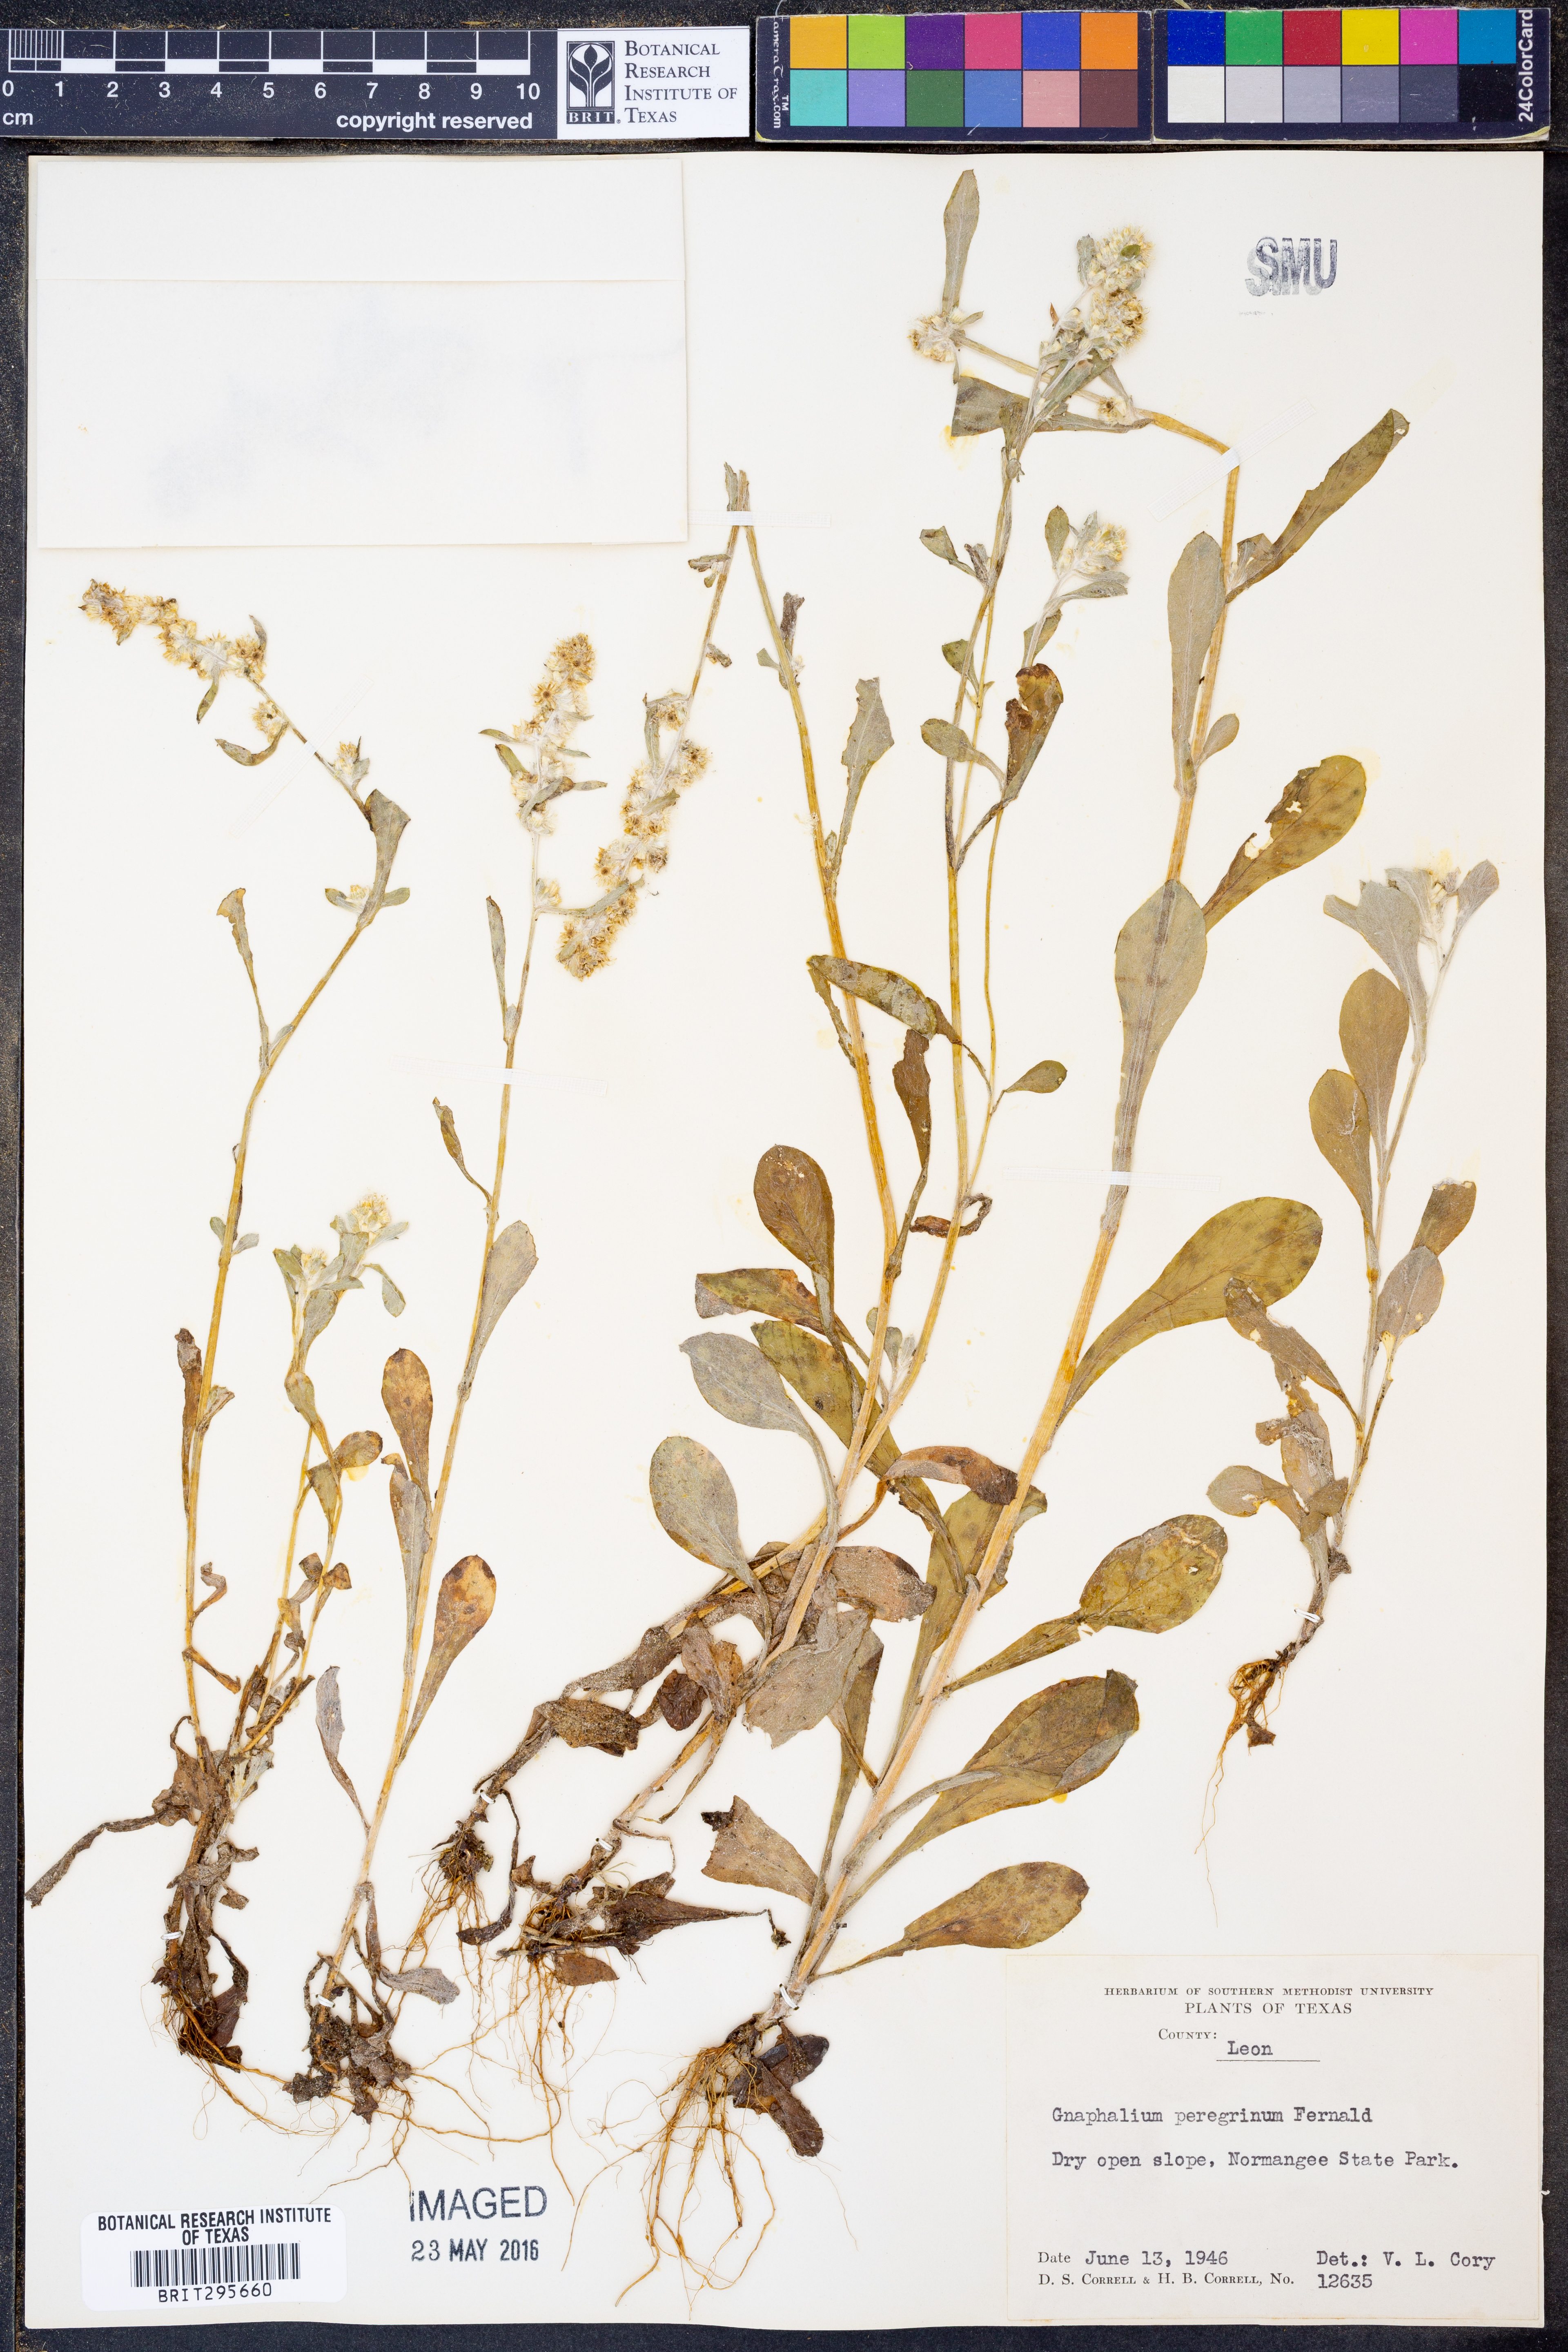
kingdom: Plantae
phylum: Tracheophyta
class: Magnoliopsida
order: Asterales
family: Asteraceae
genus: Gamochaeta
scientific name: Gamochaeta pensylvanica
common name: Pennsylvania everlasting
